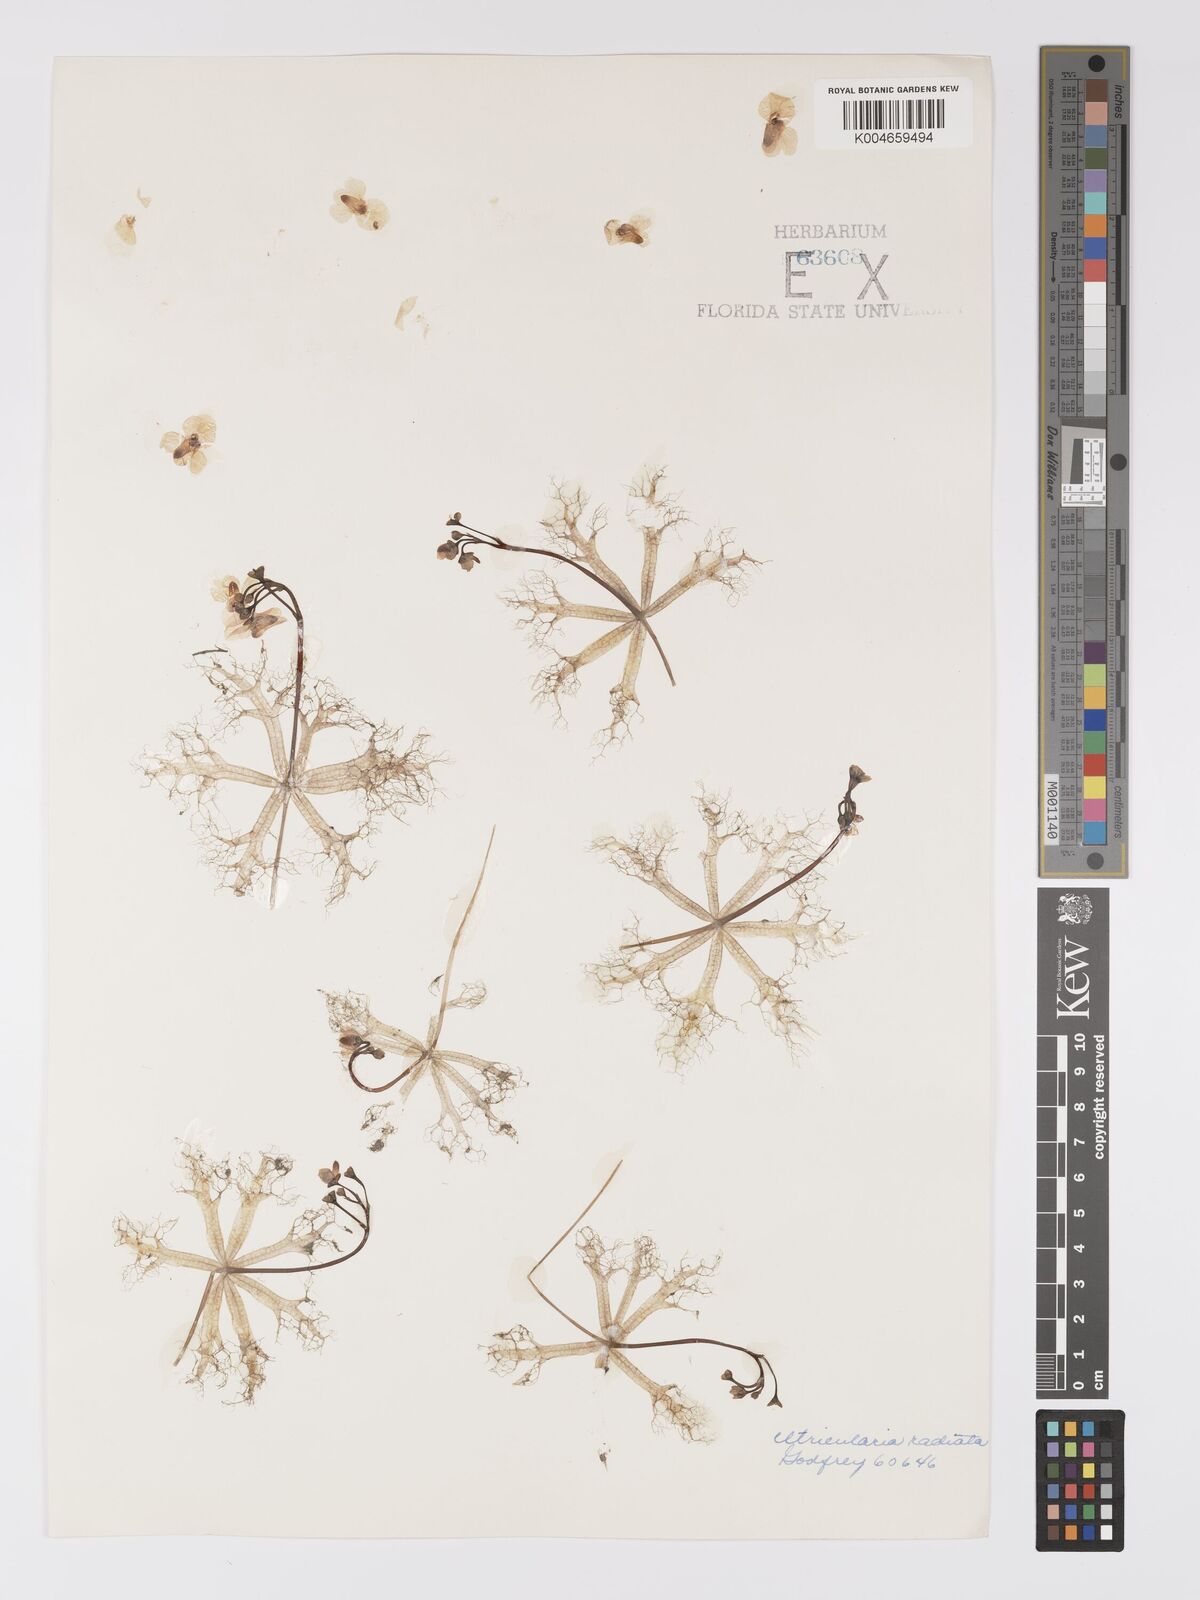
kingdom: Plantae
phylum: Tracheophyta
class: Magnoliopsida
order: Lamiales
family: Lentibulariaceae
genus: Utricularia
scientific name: Utricularia radiata
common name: Floating bladderwort
